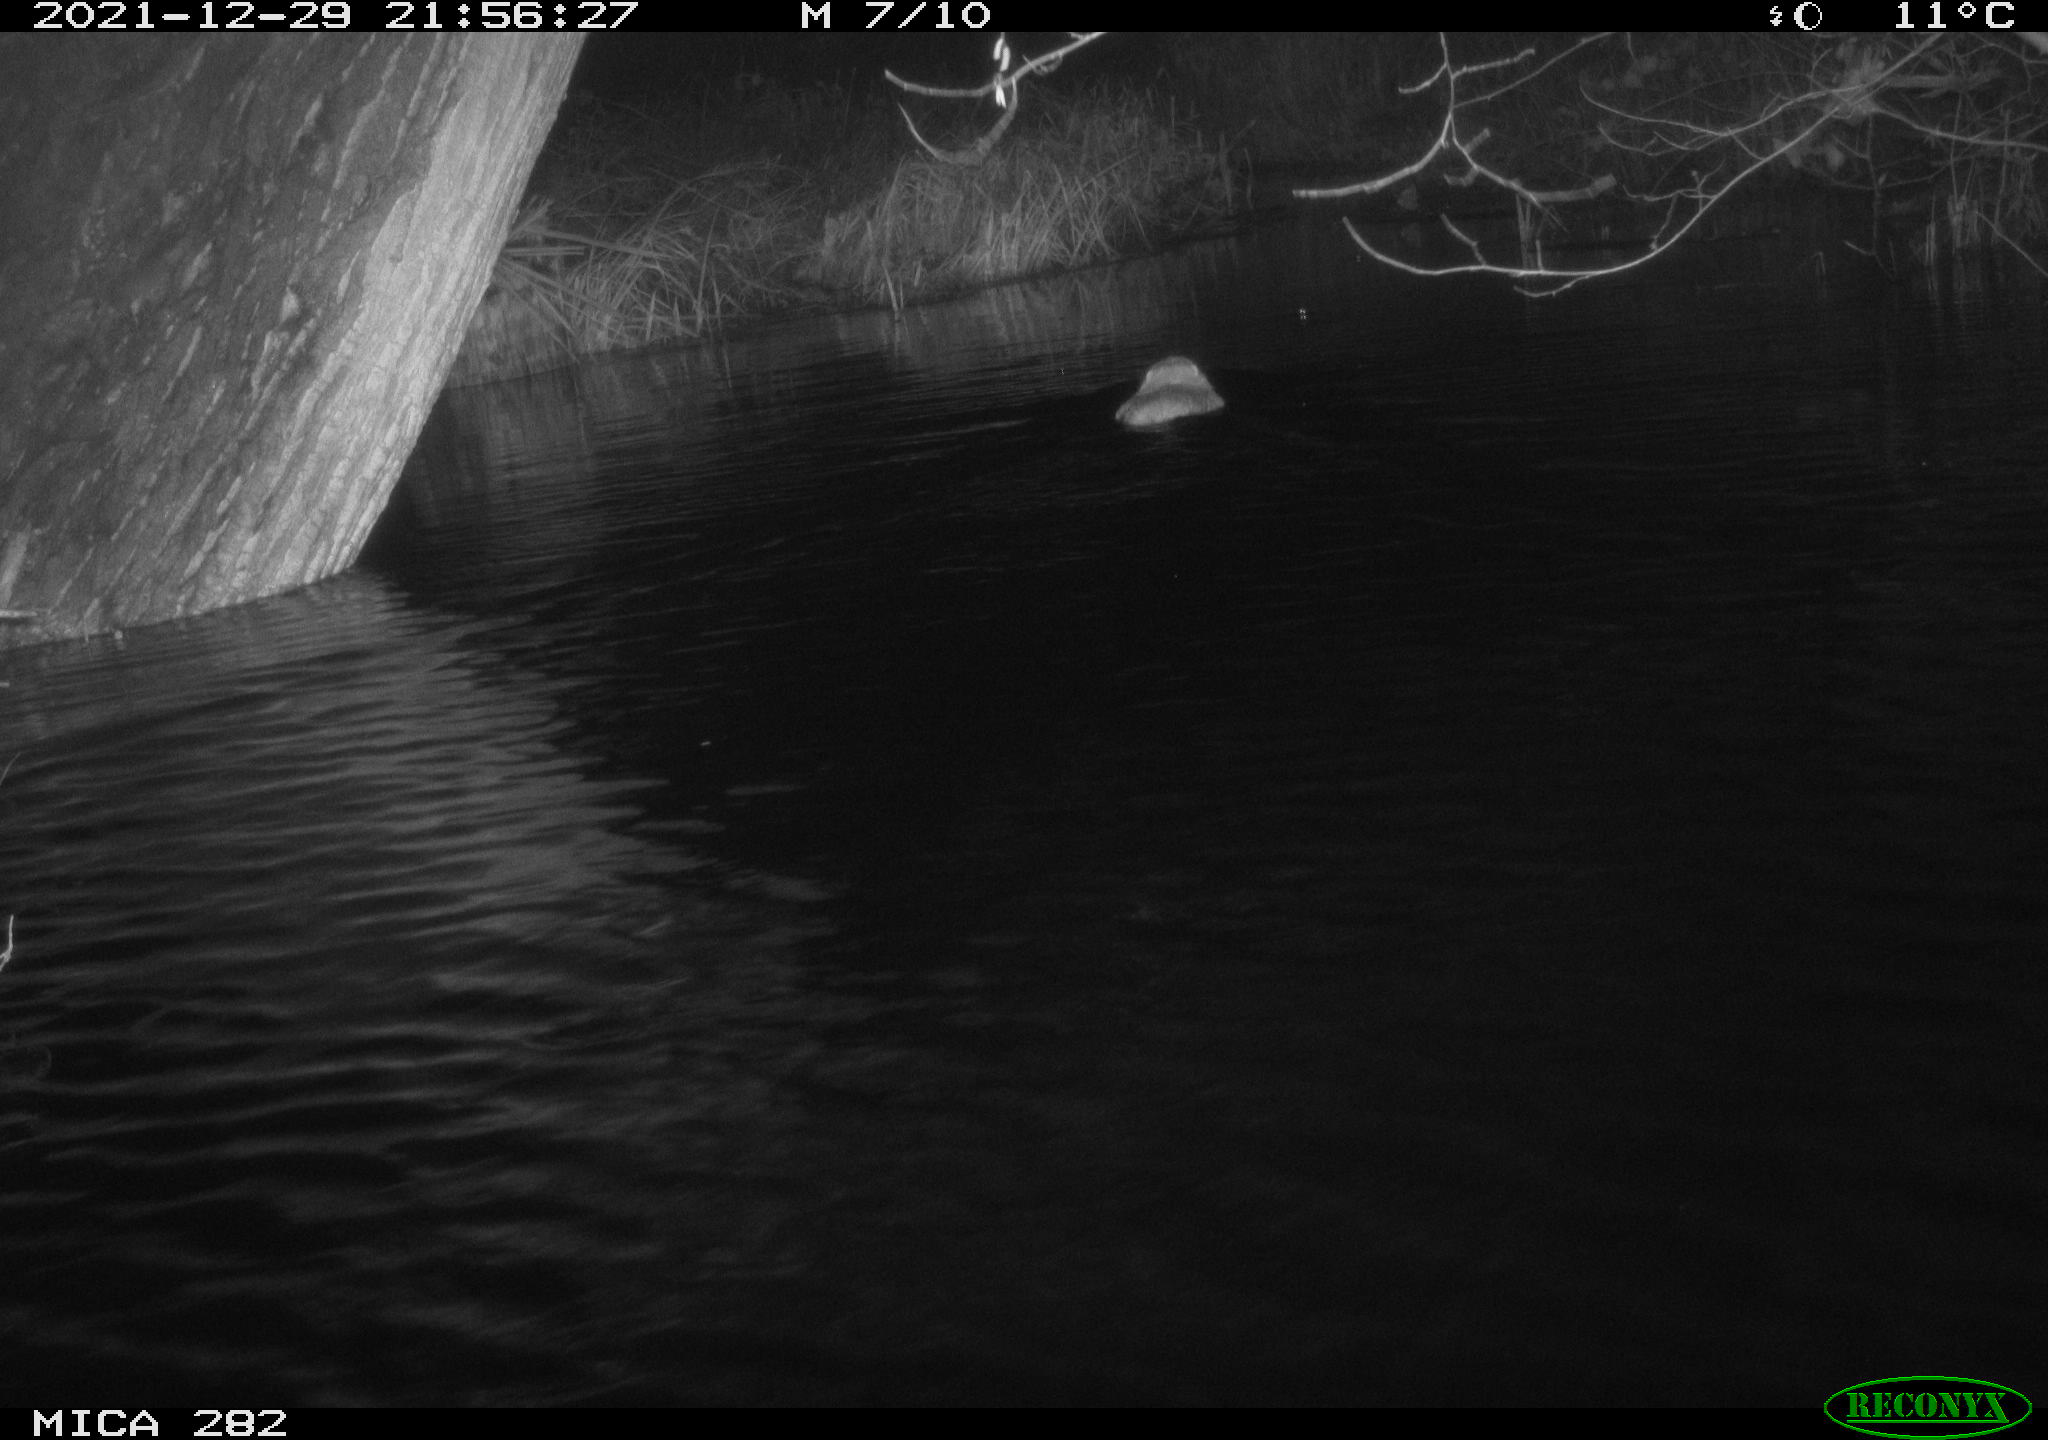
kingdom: Animalia
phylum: Chordata
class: Mammalia
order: Rodentia
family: Myocastoridae
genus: Myocastor
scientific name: Myocastor coypus
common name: Coypu
